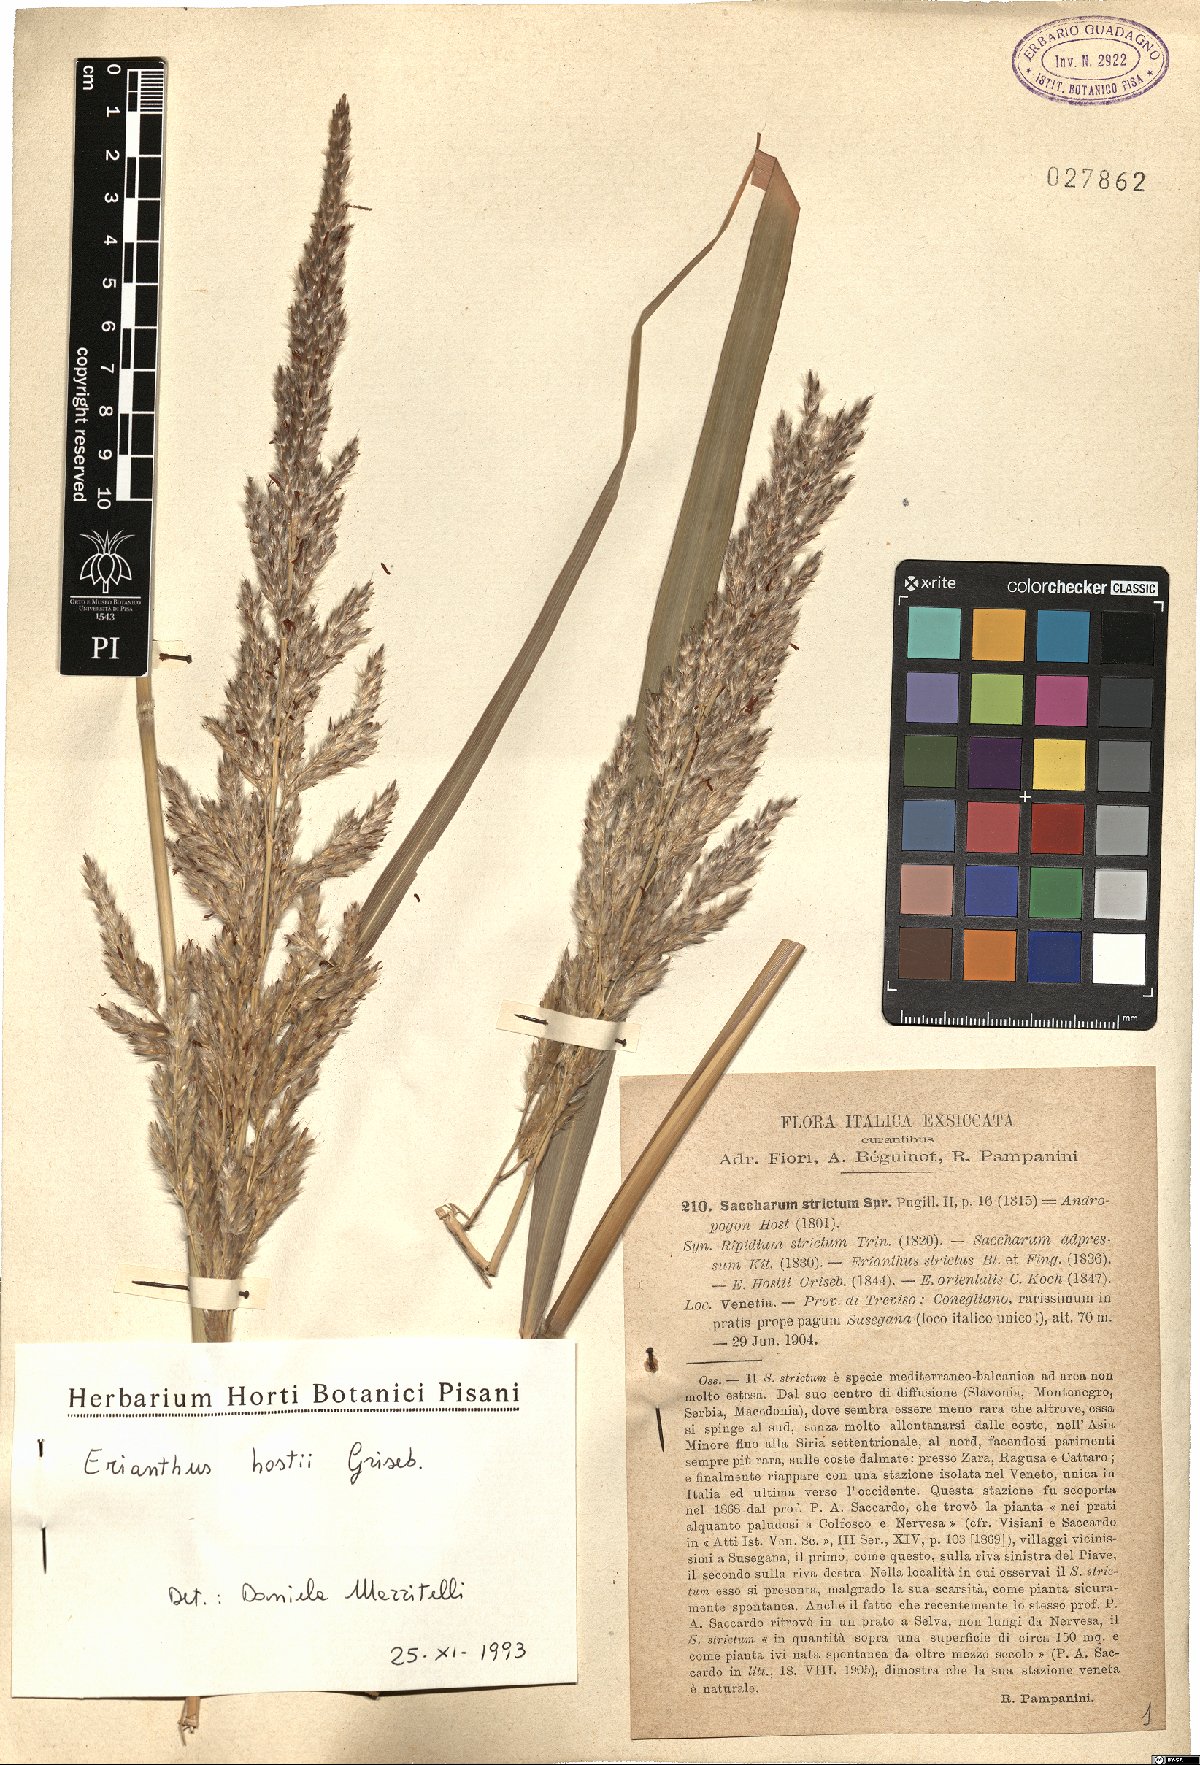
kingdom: Plantae
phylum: Tracheophyta
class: Liliopsida
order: Poales
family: Poaceae
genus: Tripidium
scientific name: Tripidium strictum
